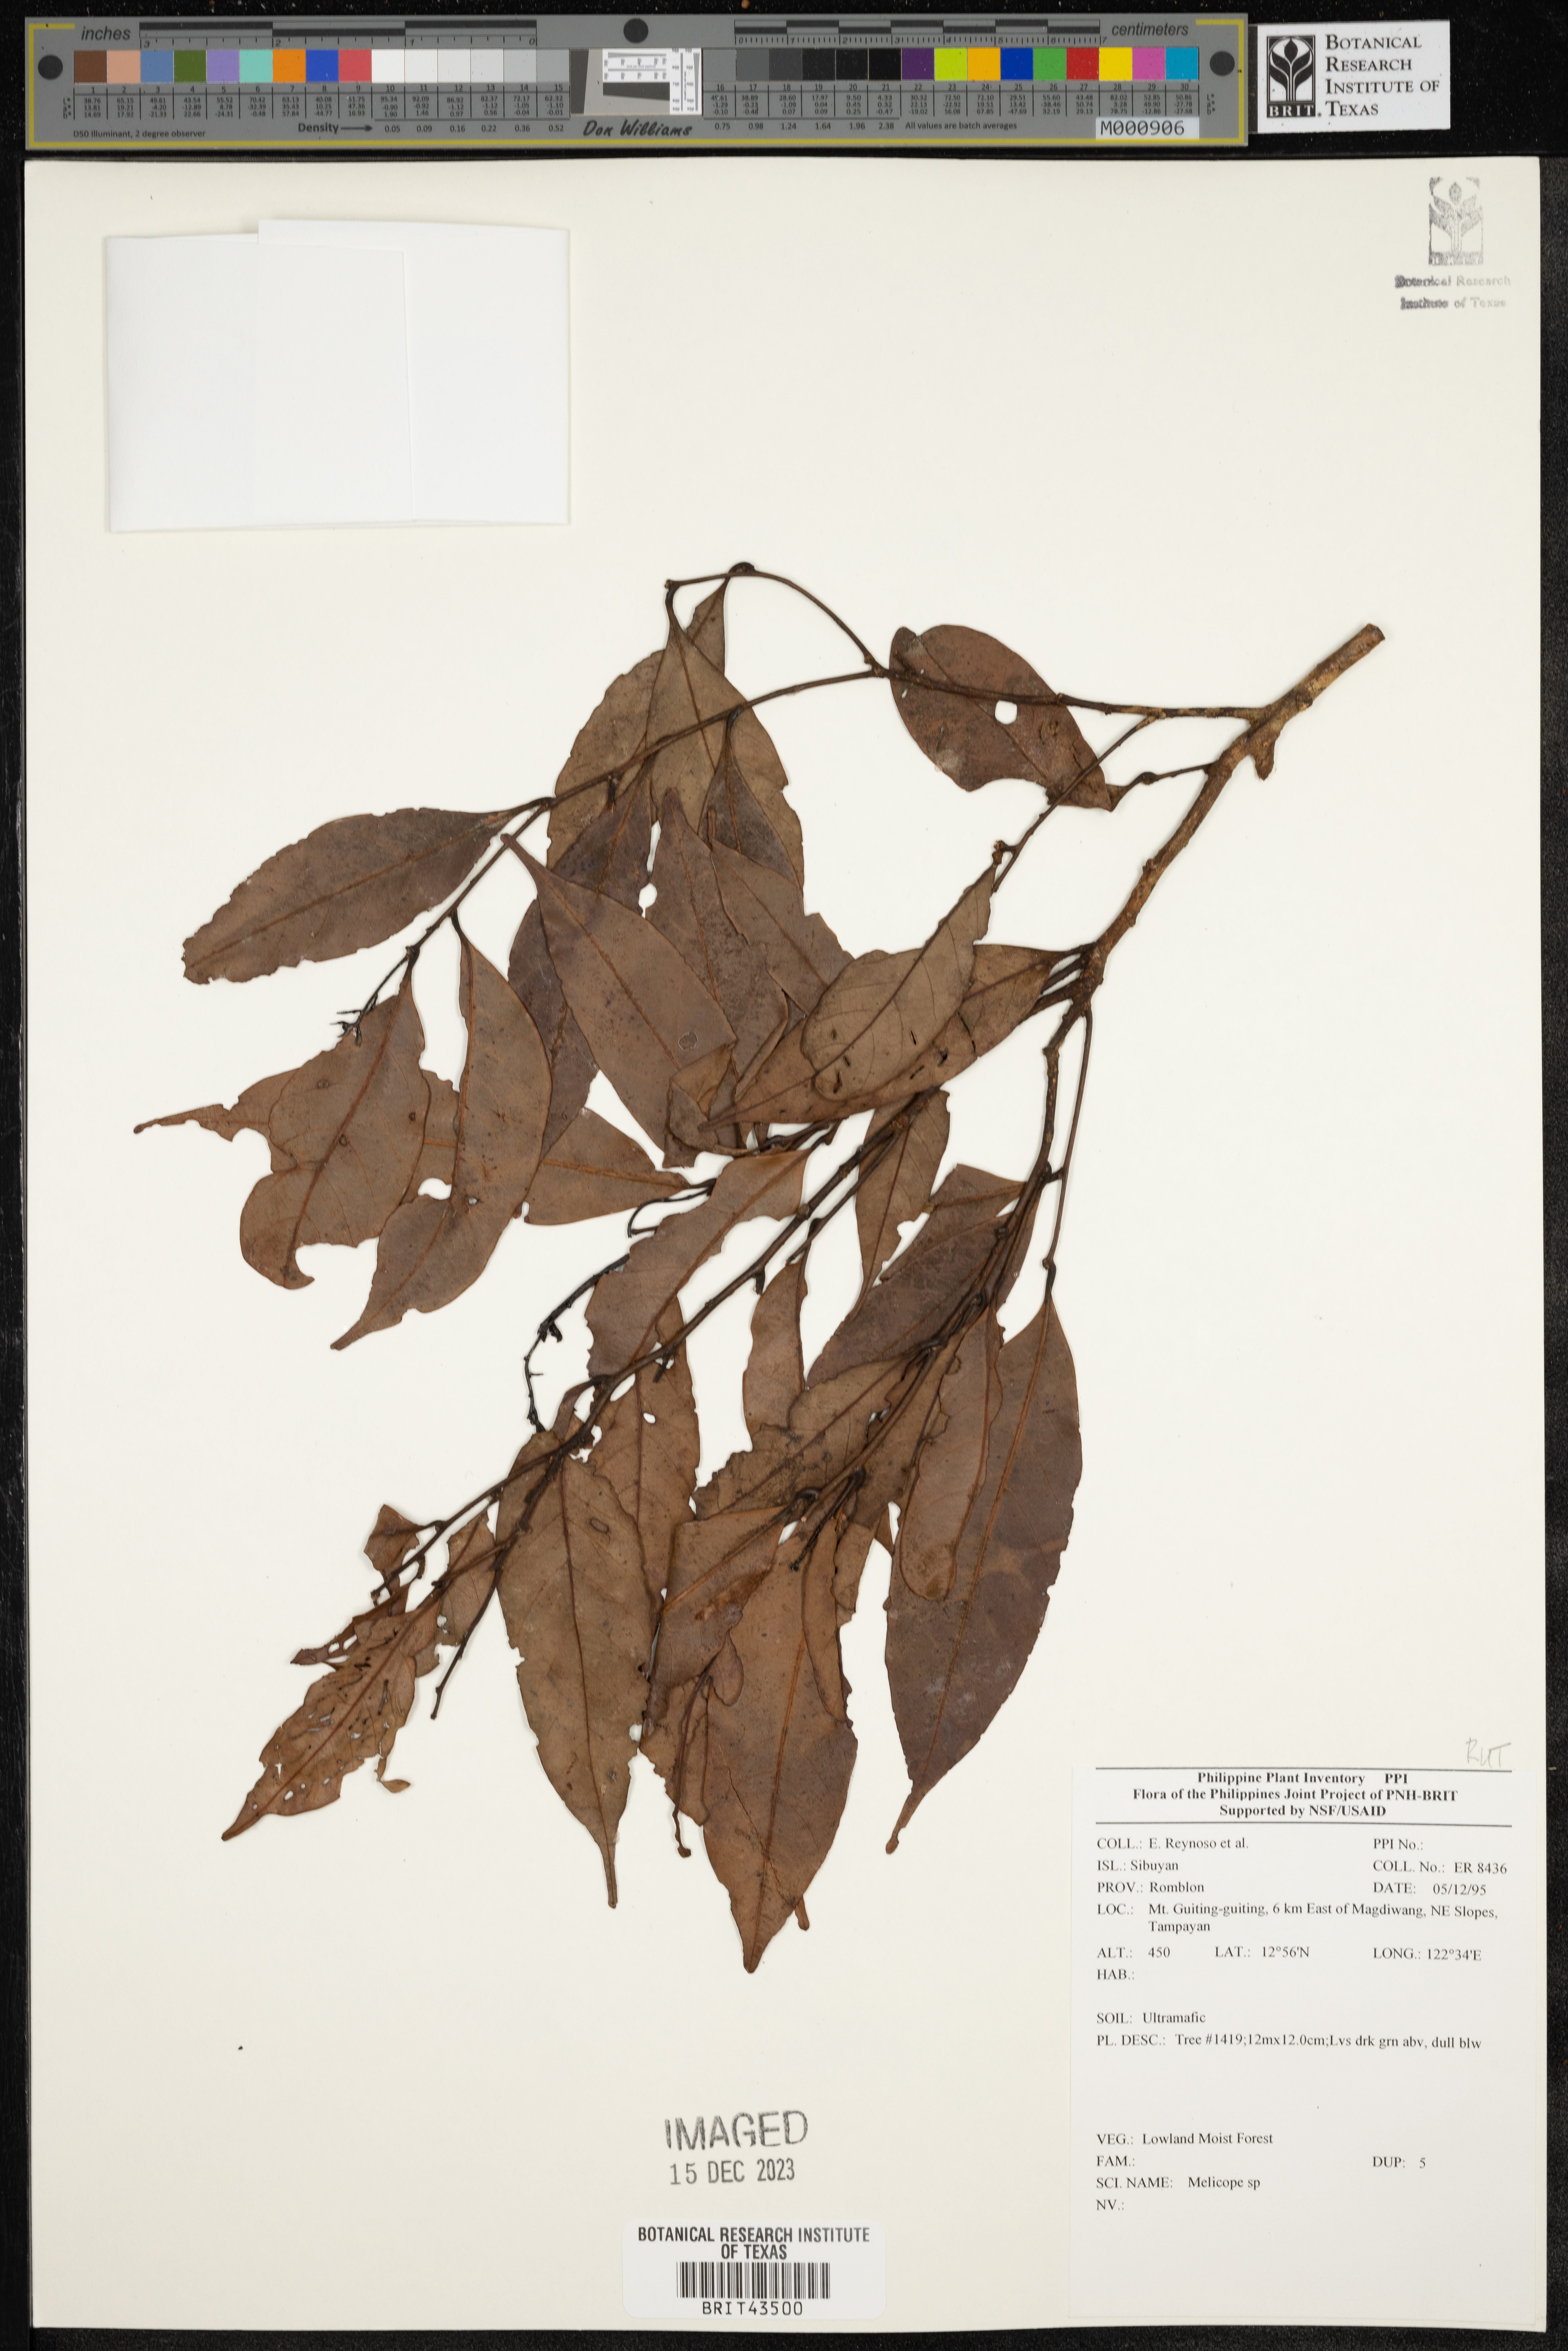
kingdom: Plantae
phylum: Tracheophyta
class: Magnoliopsida
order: Sapindales
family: Rutaceae
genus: Melicope
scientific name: Melicope
